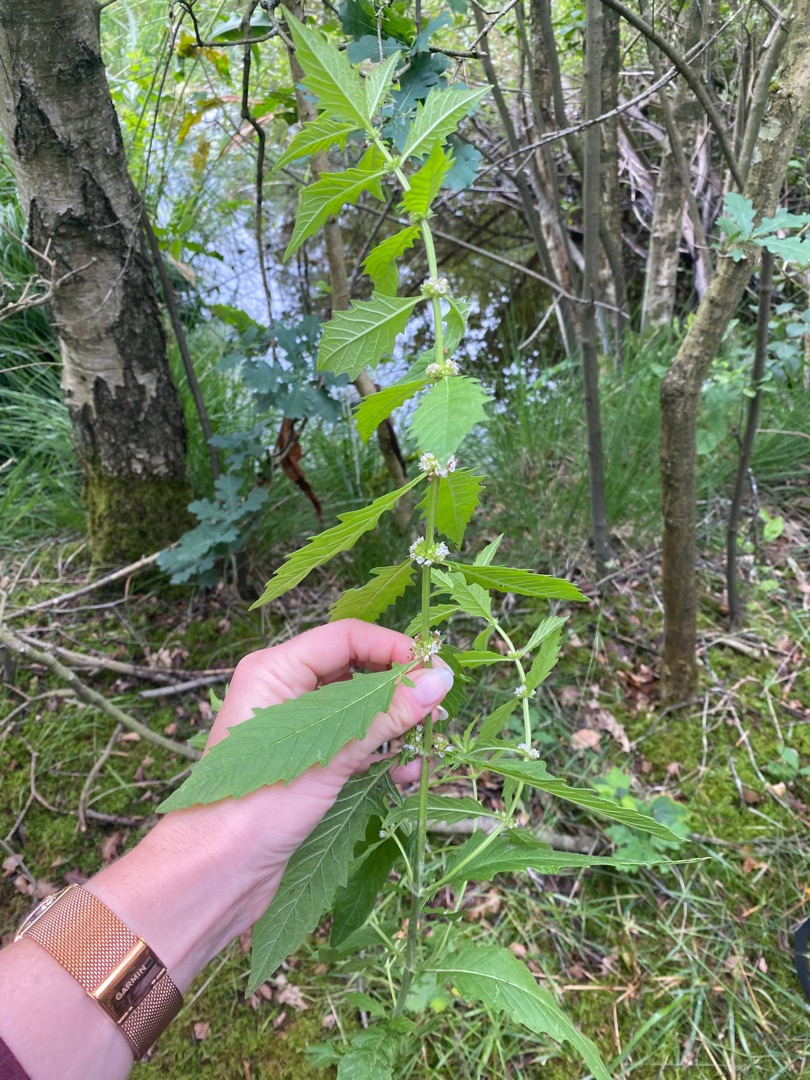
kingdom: Plantae
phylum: Tracheophyta
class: Magnoliopsida
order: Lamiales
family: Lamiaceae
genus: Lycopus
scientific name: Lycopus europaeus
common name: Sværtevæld
